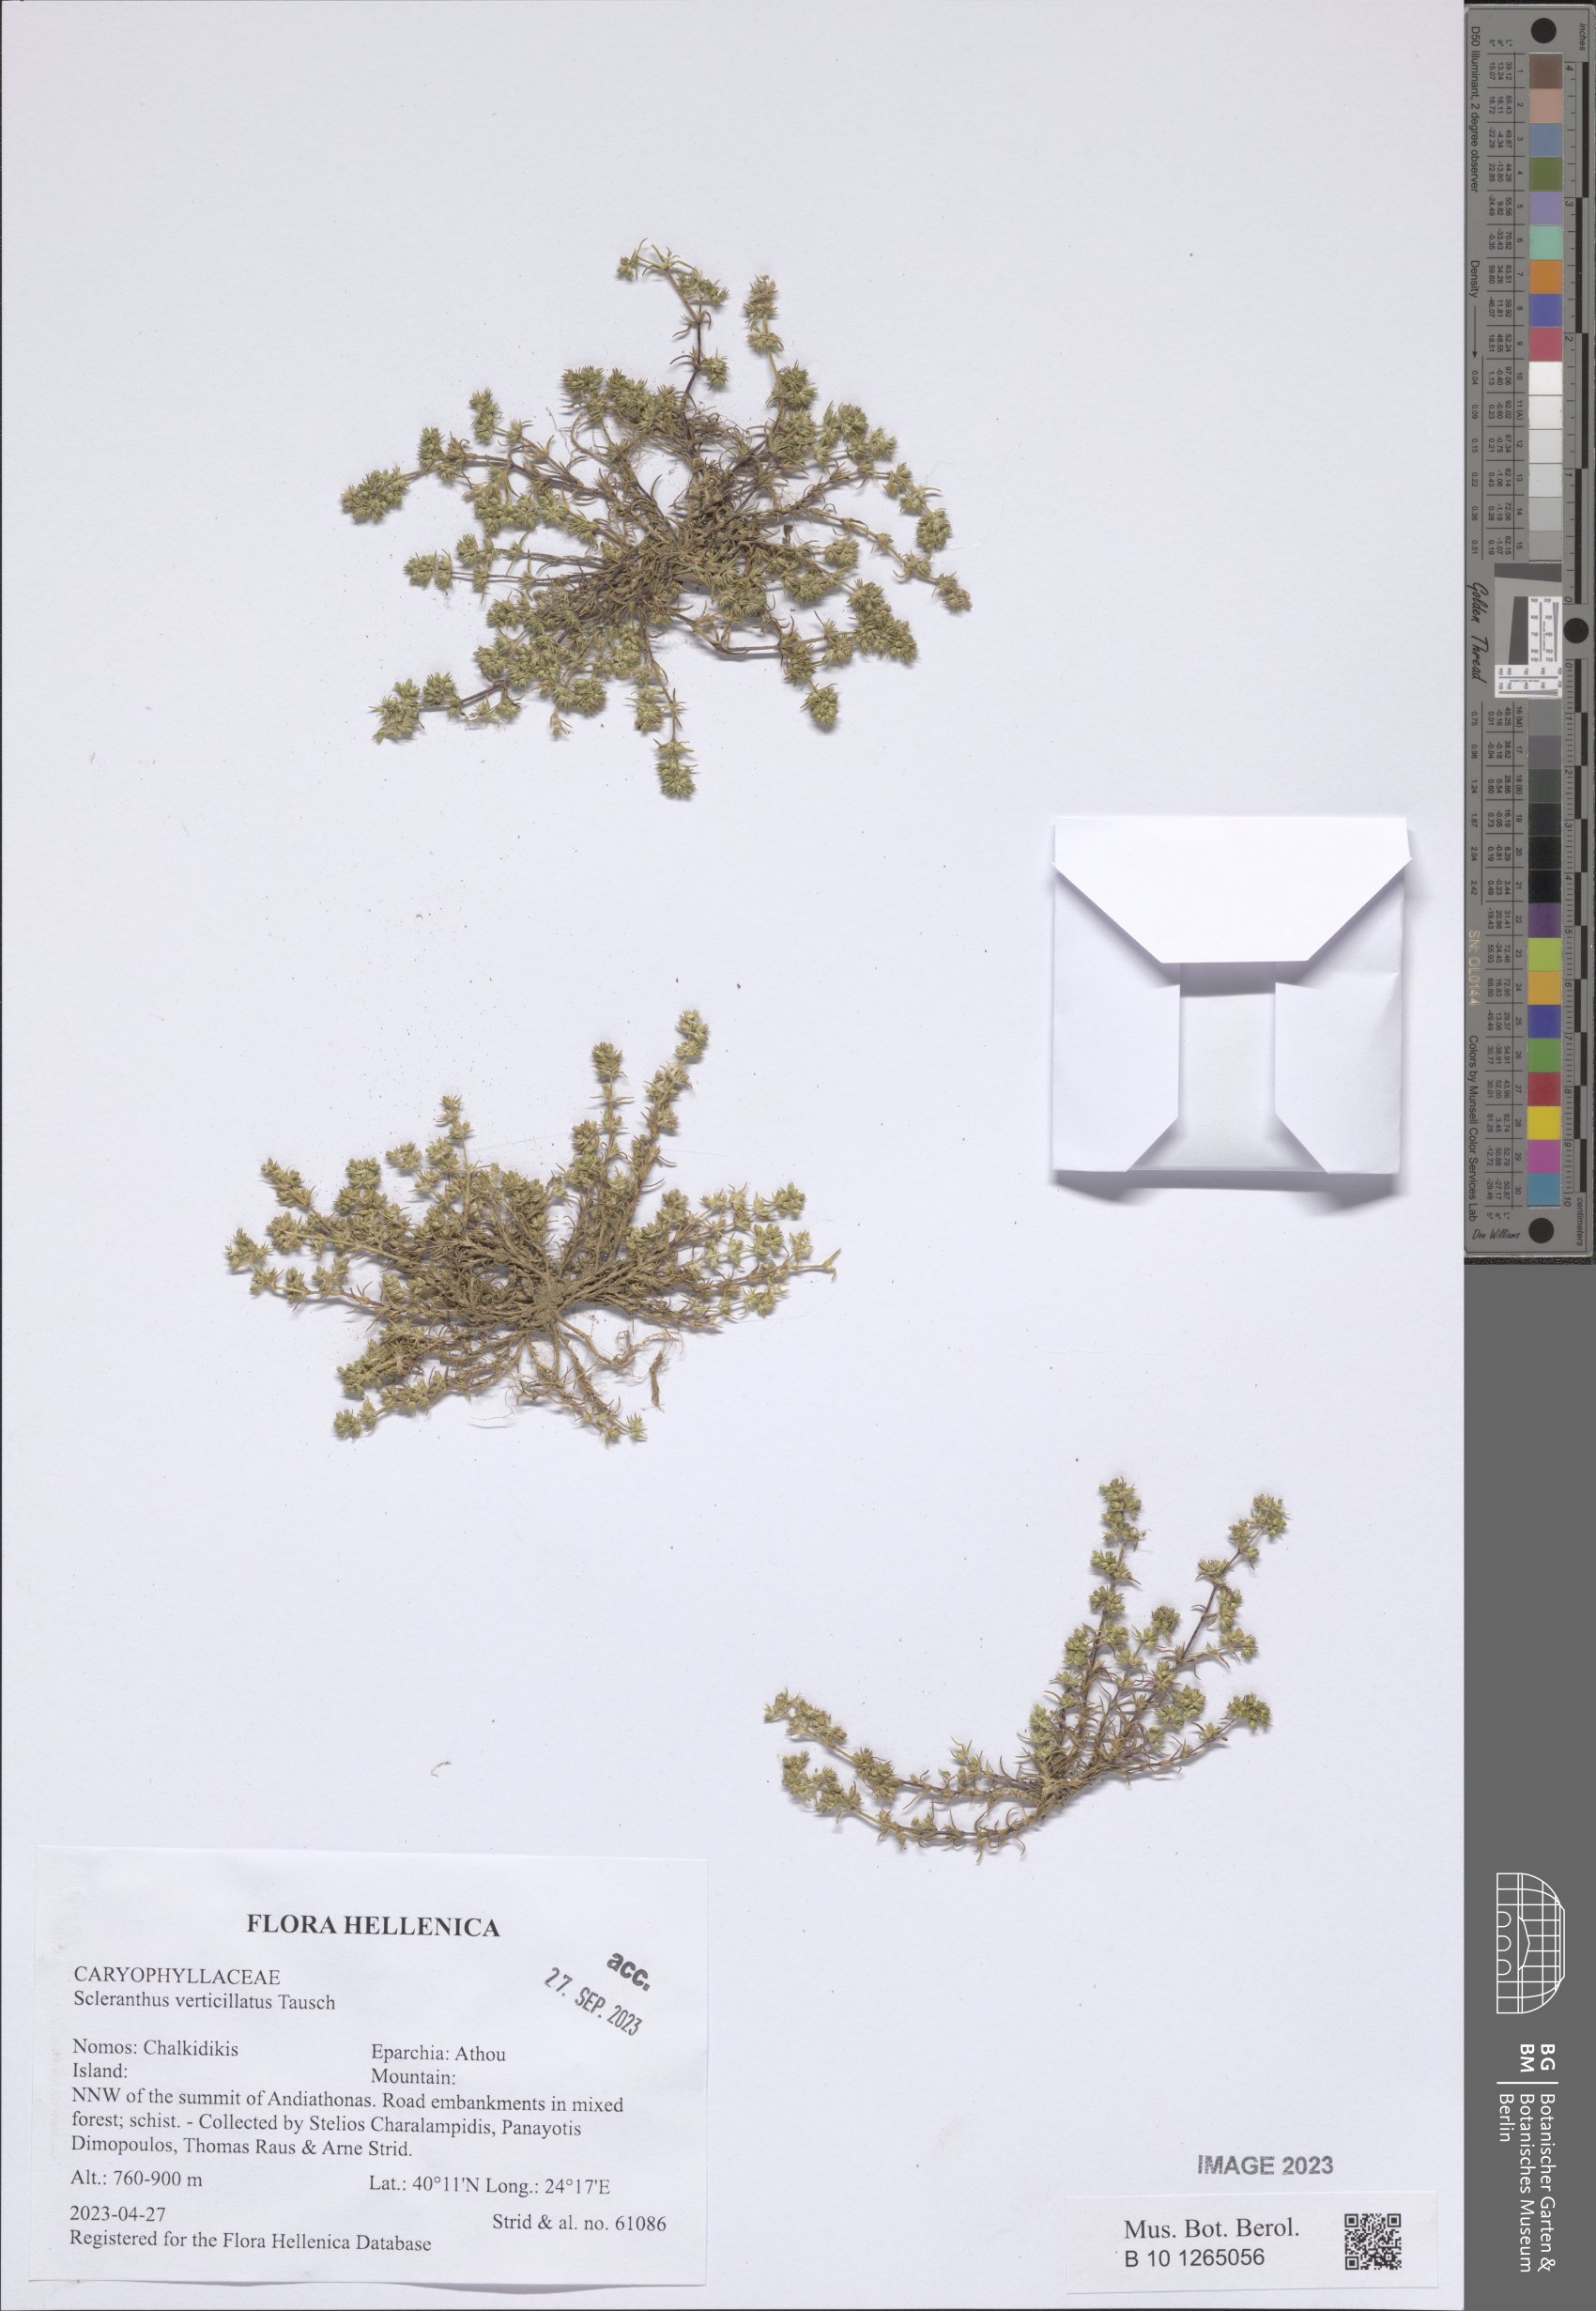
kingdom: Plantae
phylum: Tracheophyta
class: Magnoliopsida
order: Caryophyllales
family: Caryophyllaceae
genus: Scleranthus
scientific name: Scleranthus verticillatus
